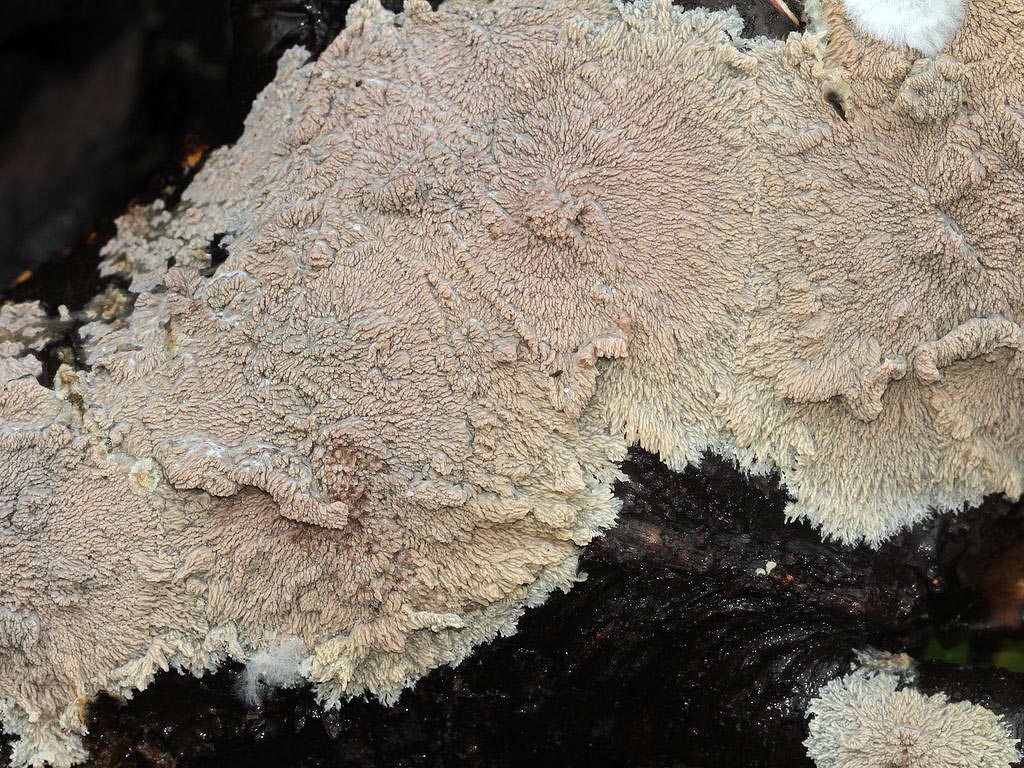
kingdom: Fungi
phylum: Basidiomycota
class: Agaricomycetes
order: Polyporales
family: Meruliaceae
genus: Phlebia
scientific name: Phlebia radiata
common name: stråle-åresvamp
